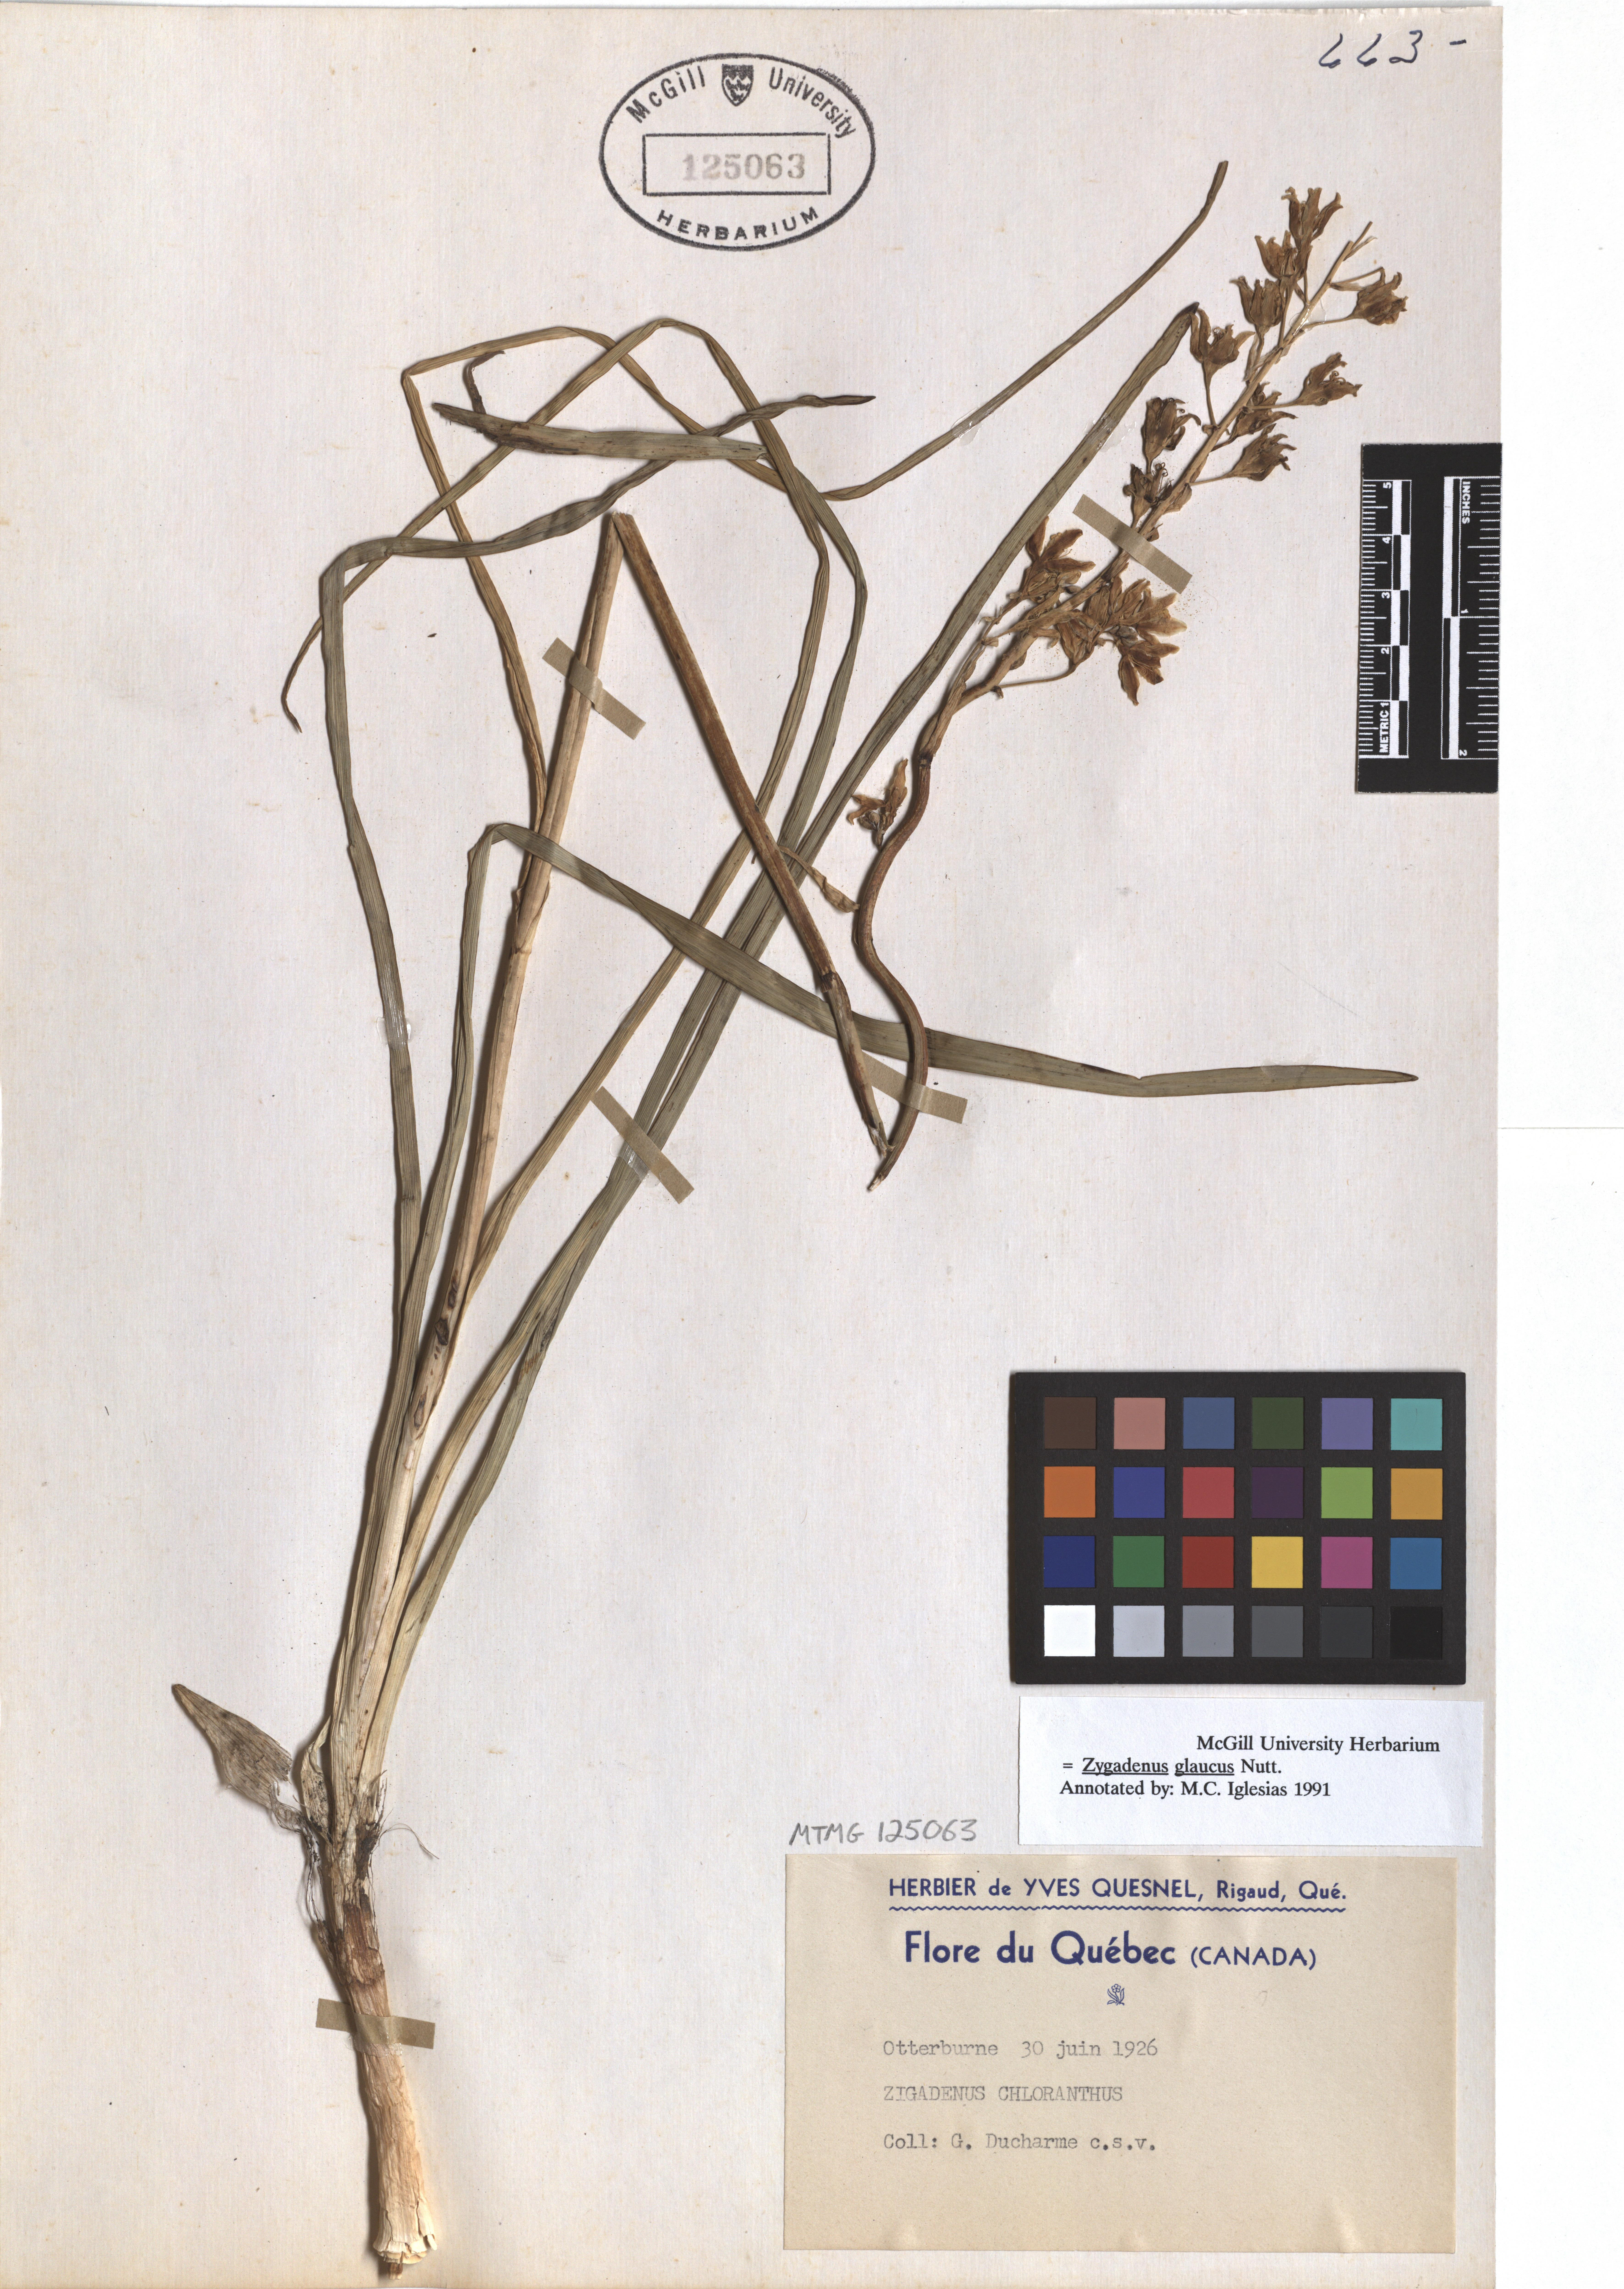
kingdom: Plantae
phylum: Tracheophyta
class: Liliopsida
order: Liliales
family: Melanthiaceae
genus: Anticlea
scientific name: Anticlea elegans
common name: Mountain death camas
